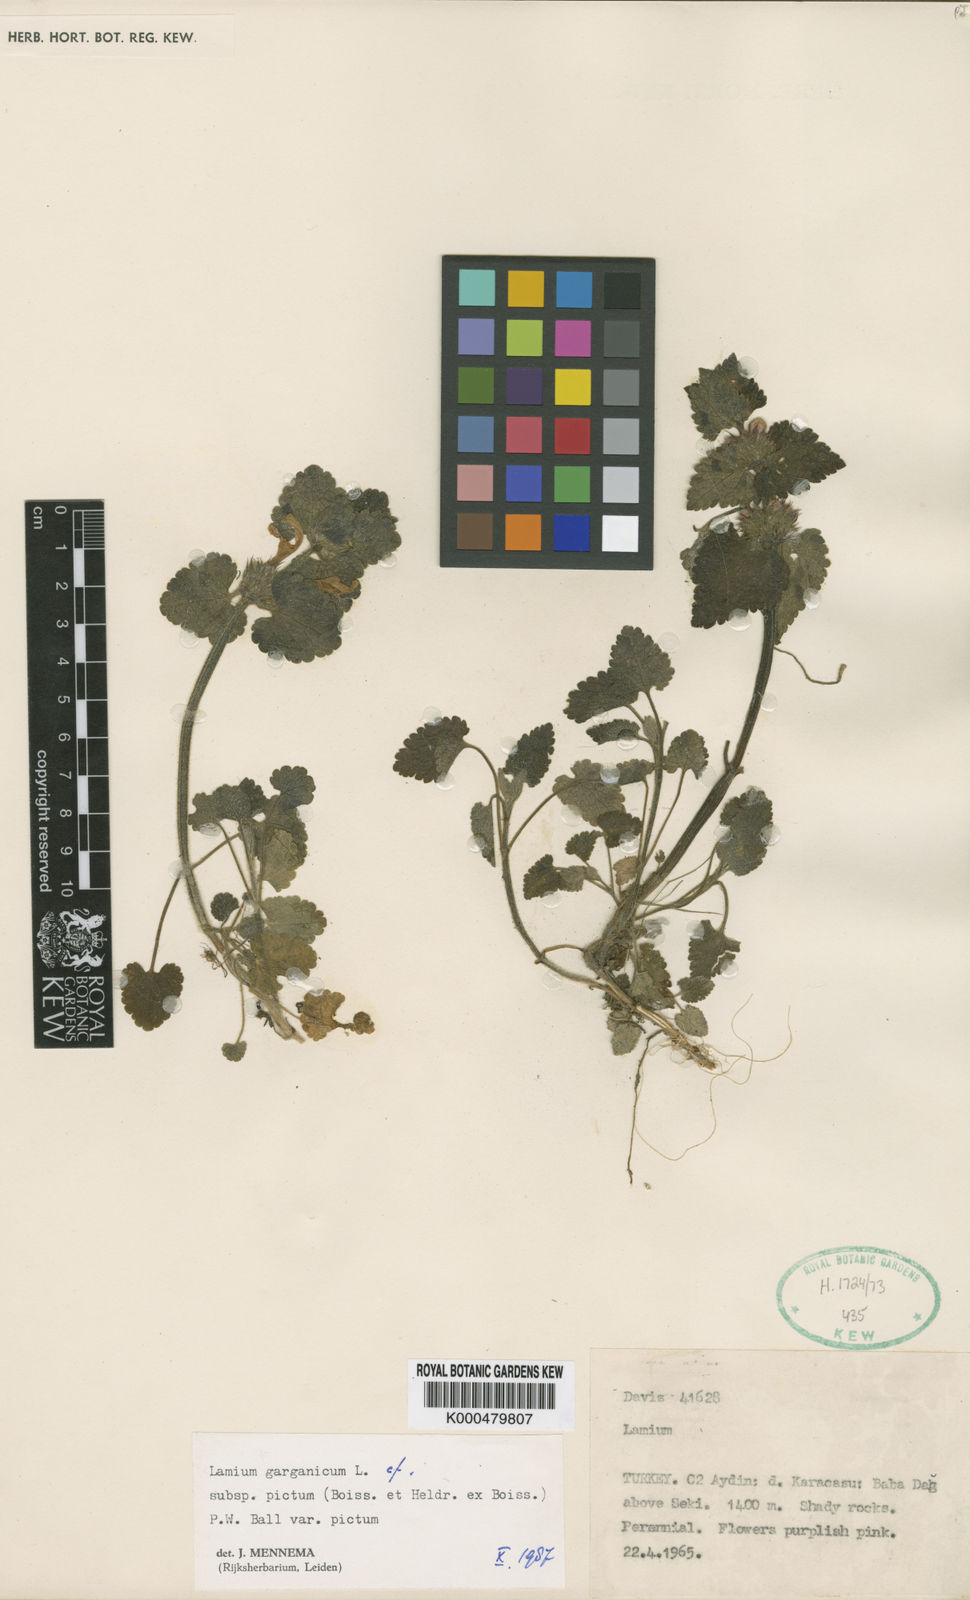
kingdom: Plantae
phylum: Tracheophyta
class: Magnoliopsida
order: Lamiales
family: Lamiaceae
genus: Lamium
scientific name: Lamium garganicum
